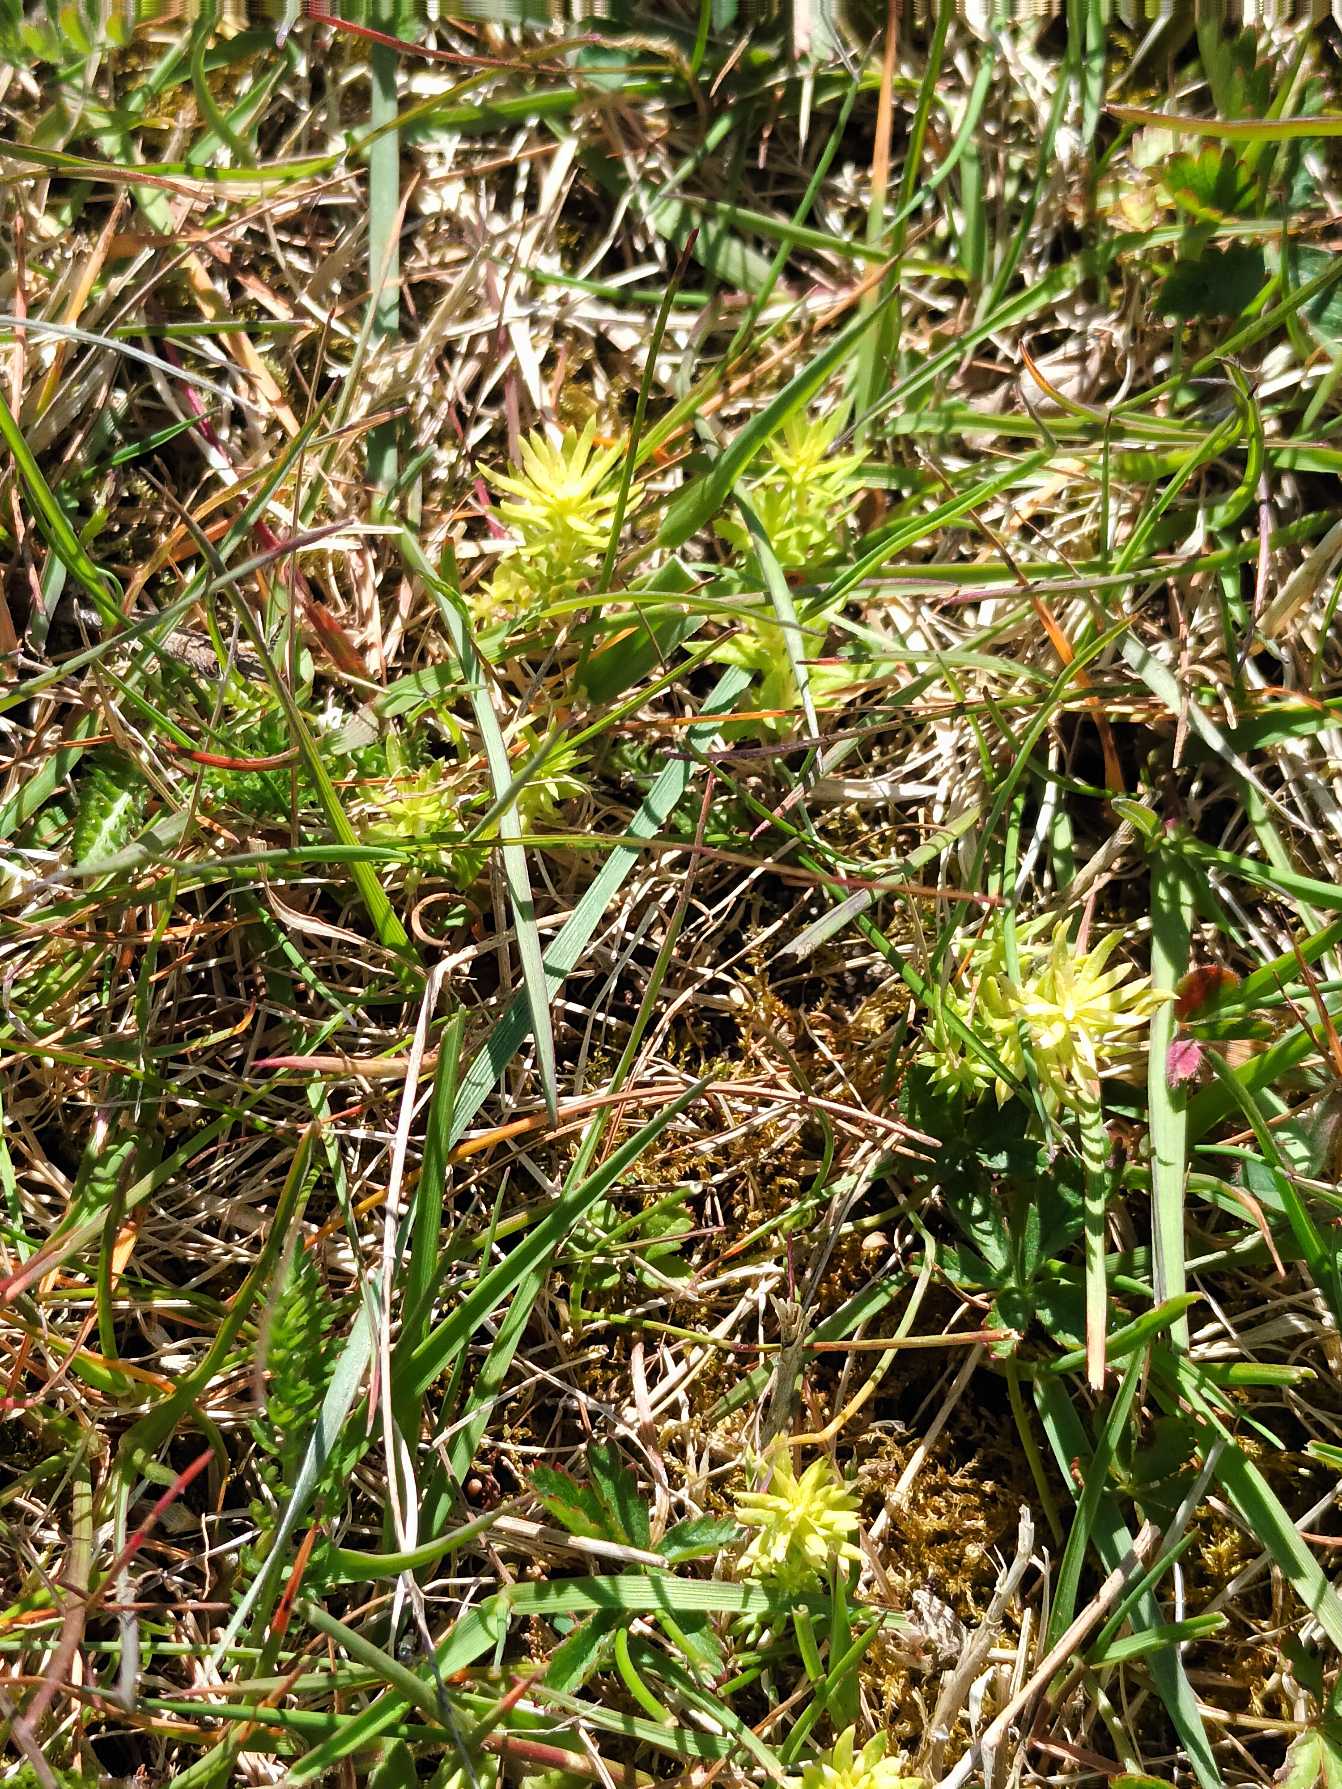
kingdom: Plantae
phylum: Tracheophyta
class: Magnoliopsida
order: Gentianales
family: Rubiaceae
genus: Galium
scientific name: Galium verum
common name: Gul snerre
